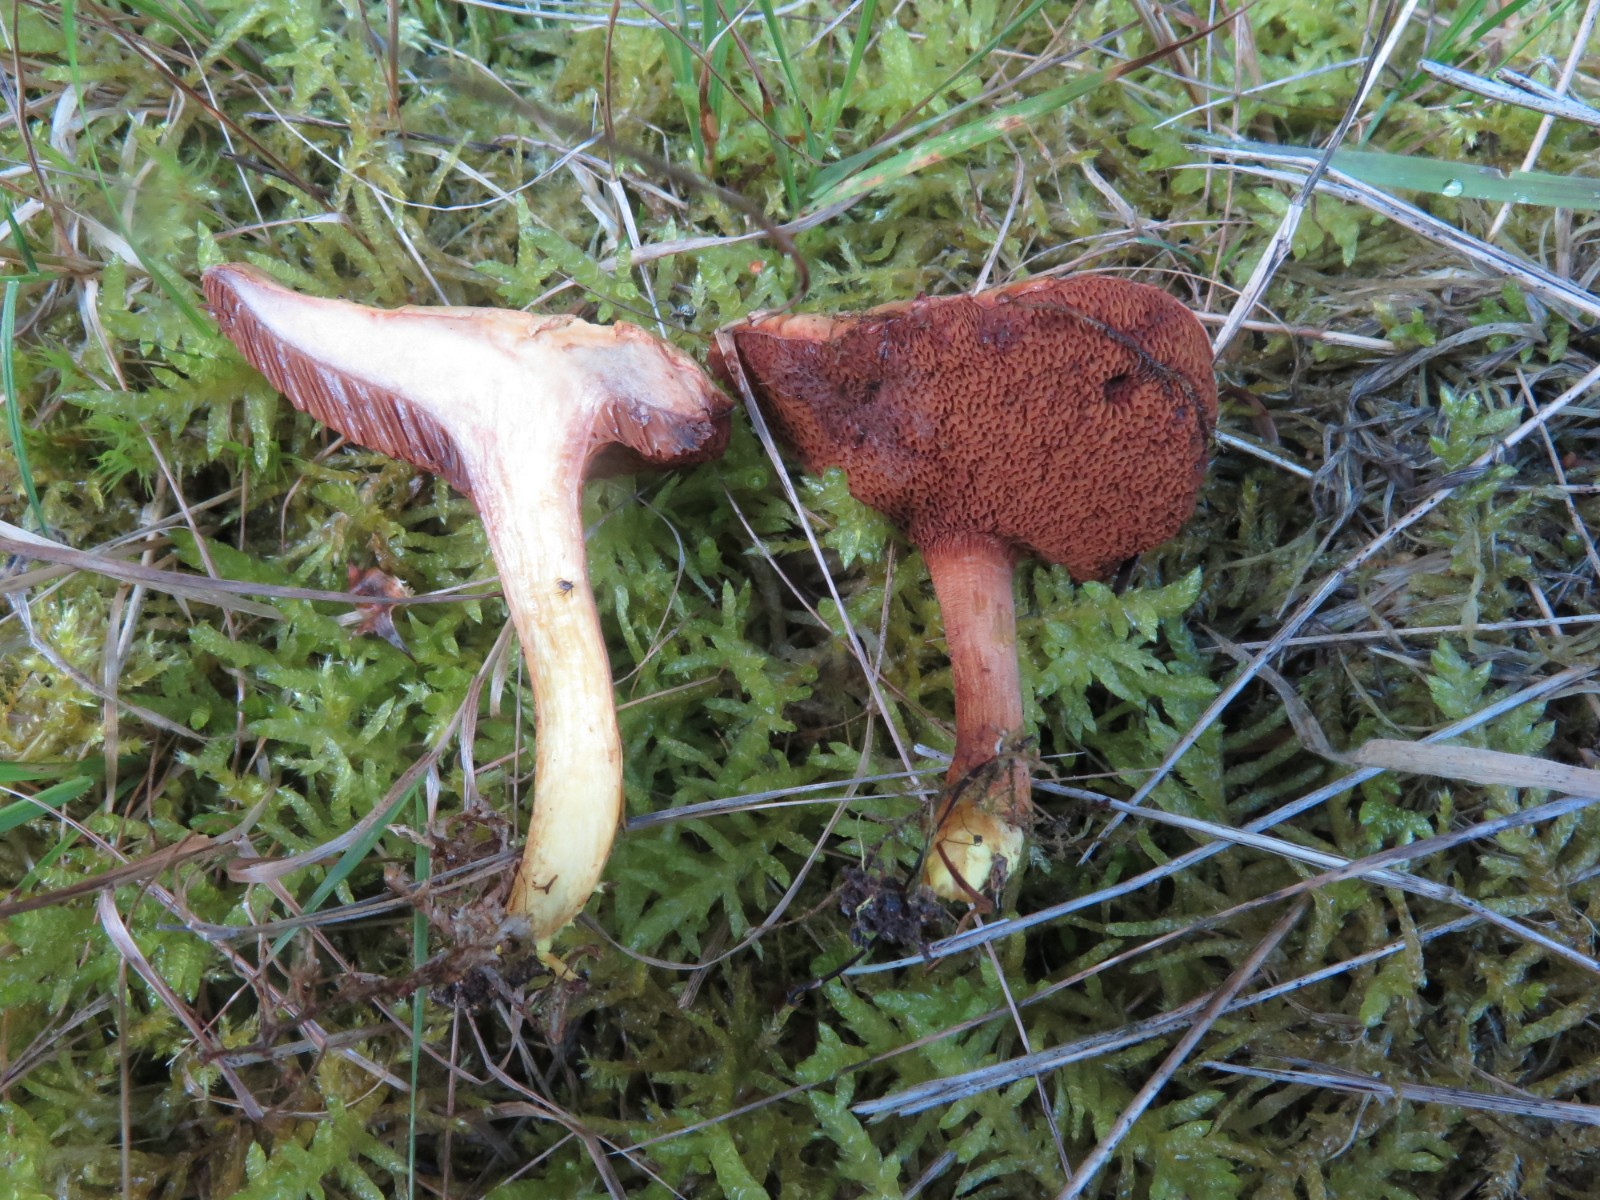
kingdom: Fungi
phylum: Basidiomycota
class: Agaricomycetes
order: Boletales
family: Boletaceae
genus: Chalciporus
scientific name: Chalciporus piperatus
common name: peberrørhat
